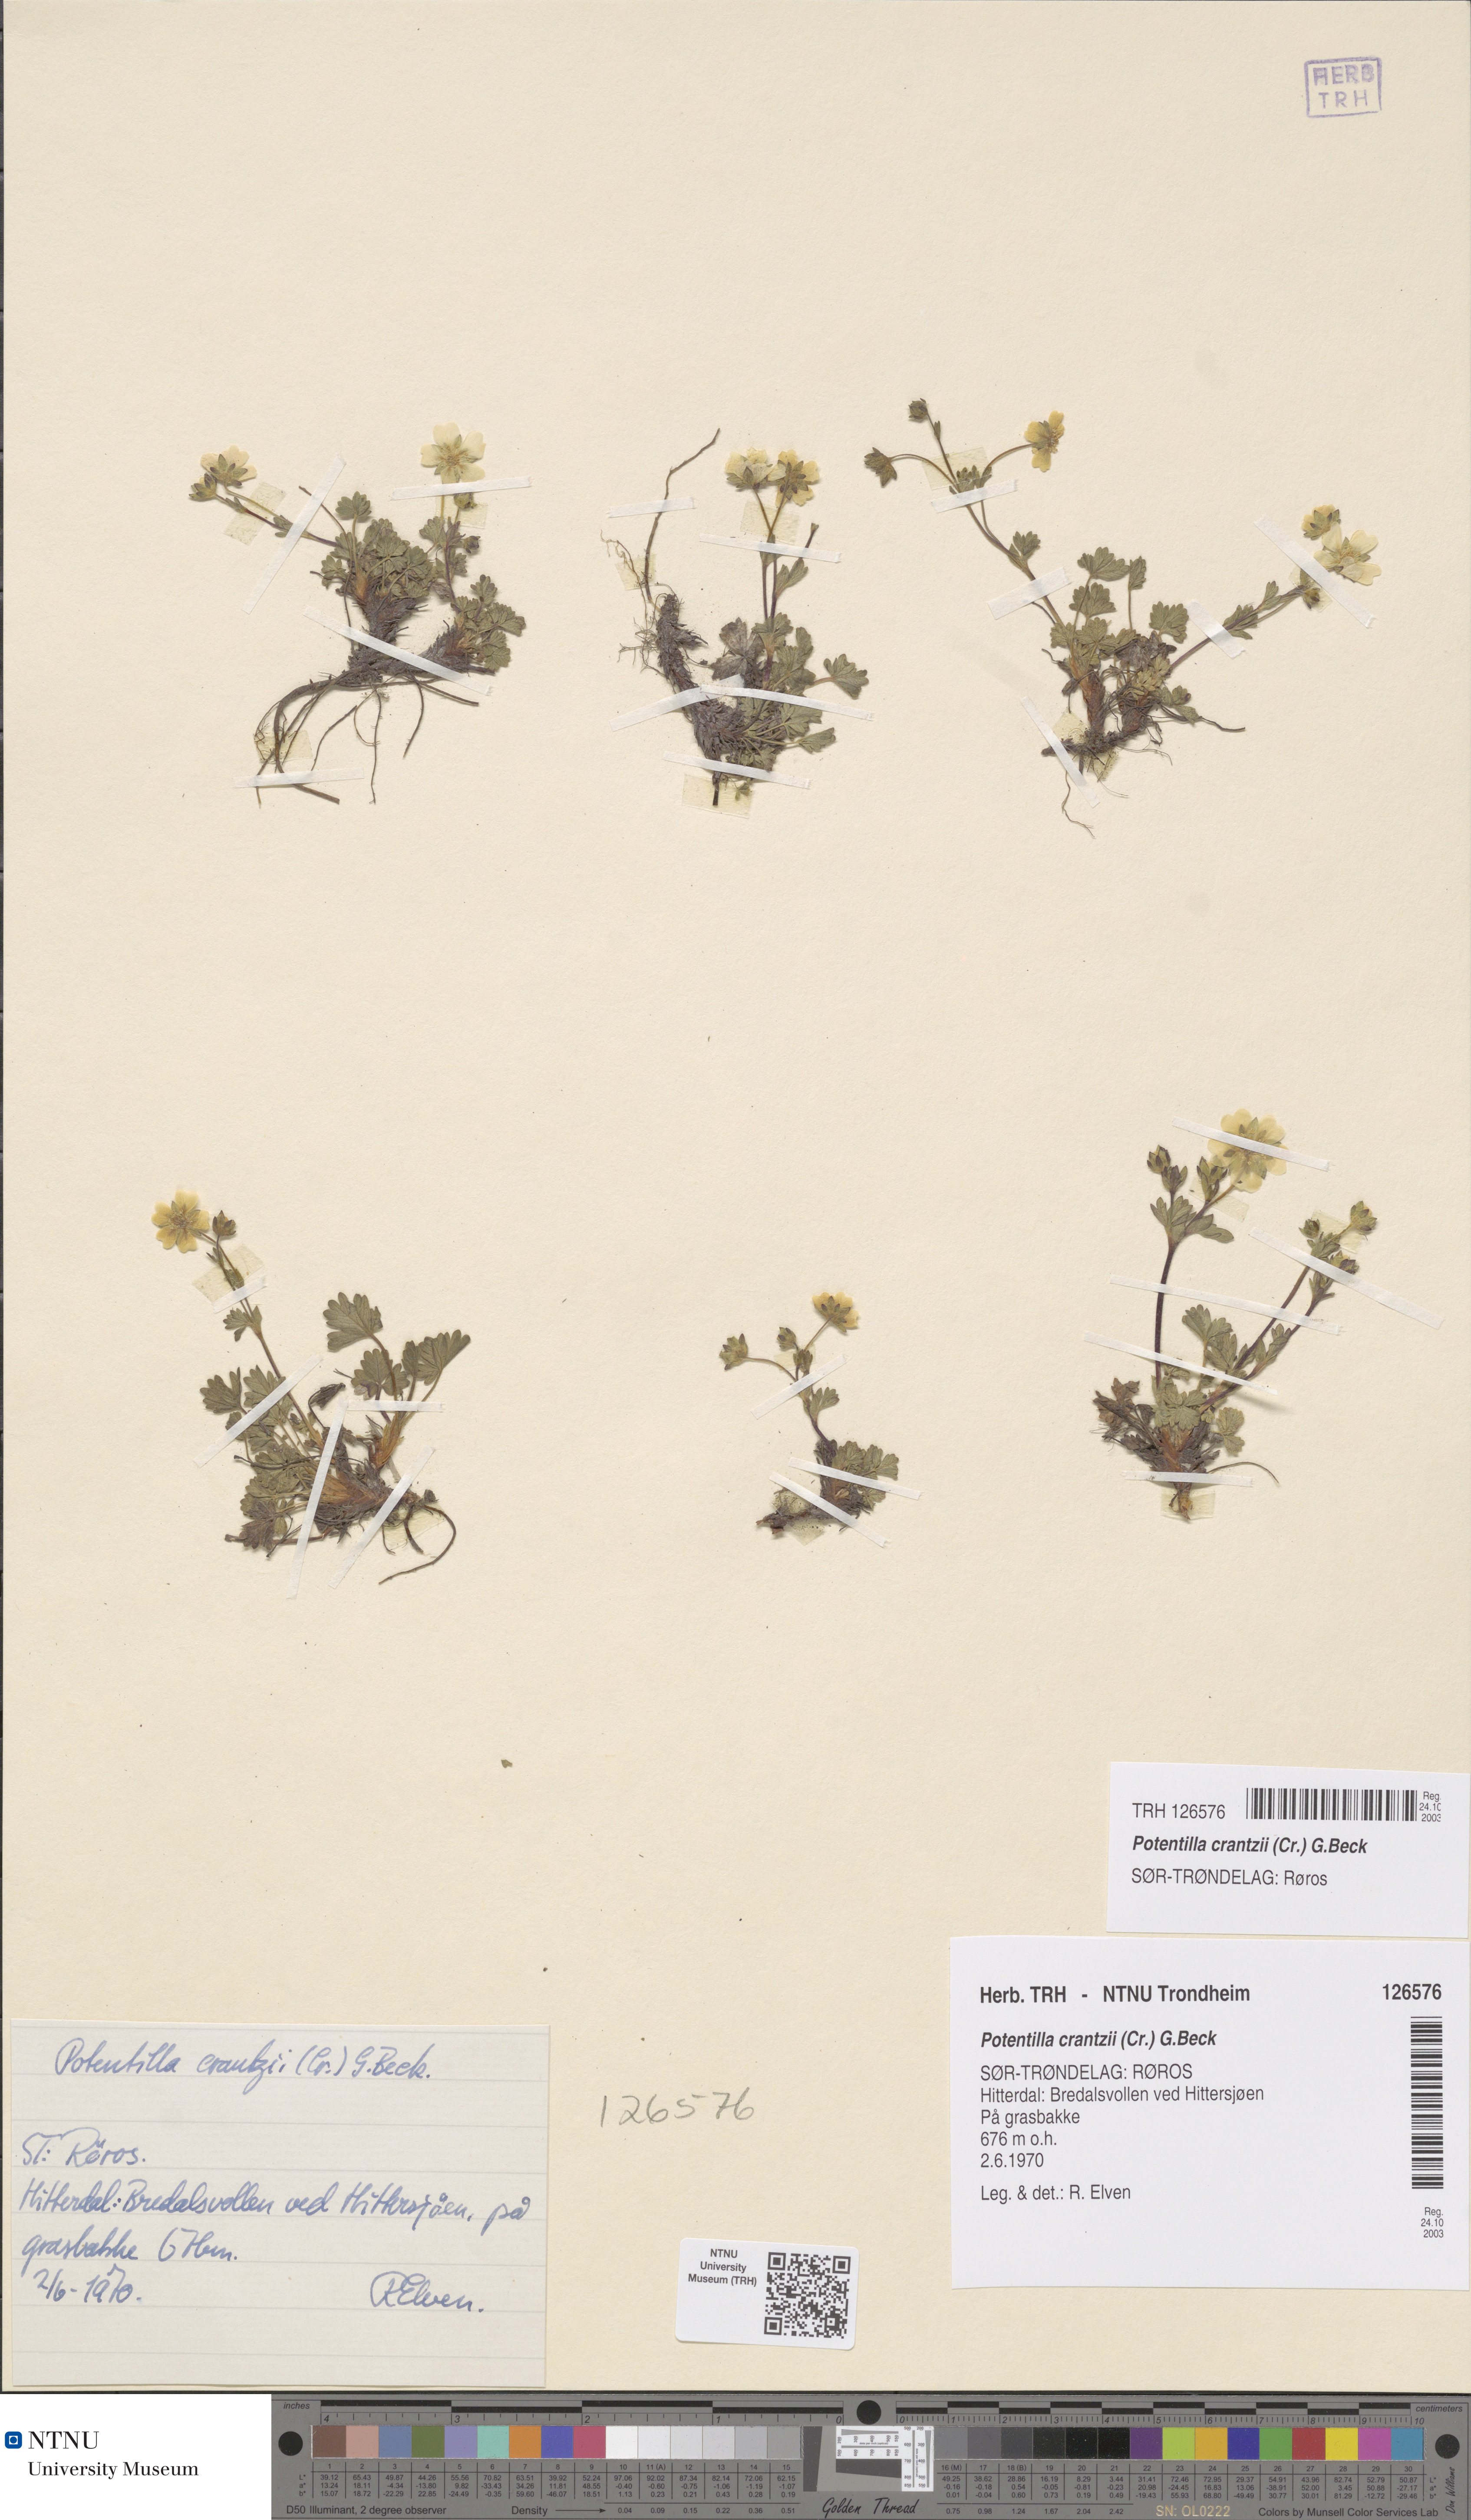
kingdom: Plantae
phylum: Tracheophyta
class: Magnoliopsida
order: Rosales
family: Rosaceae
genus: Potentilla
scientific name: Potentilla crantzii
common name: Alpine cinquefoil
